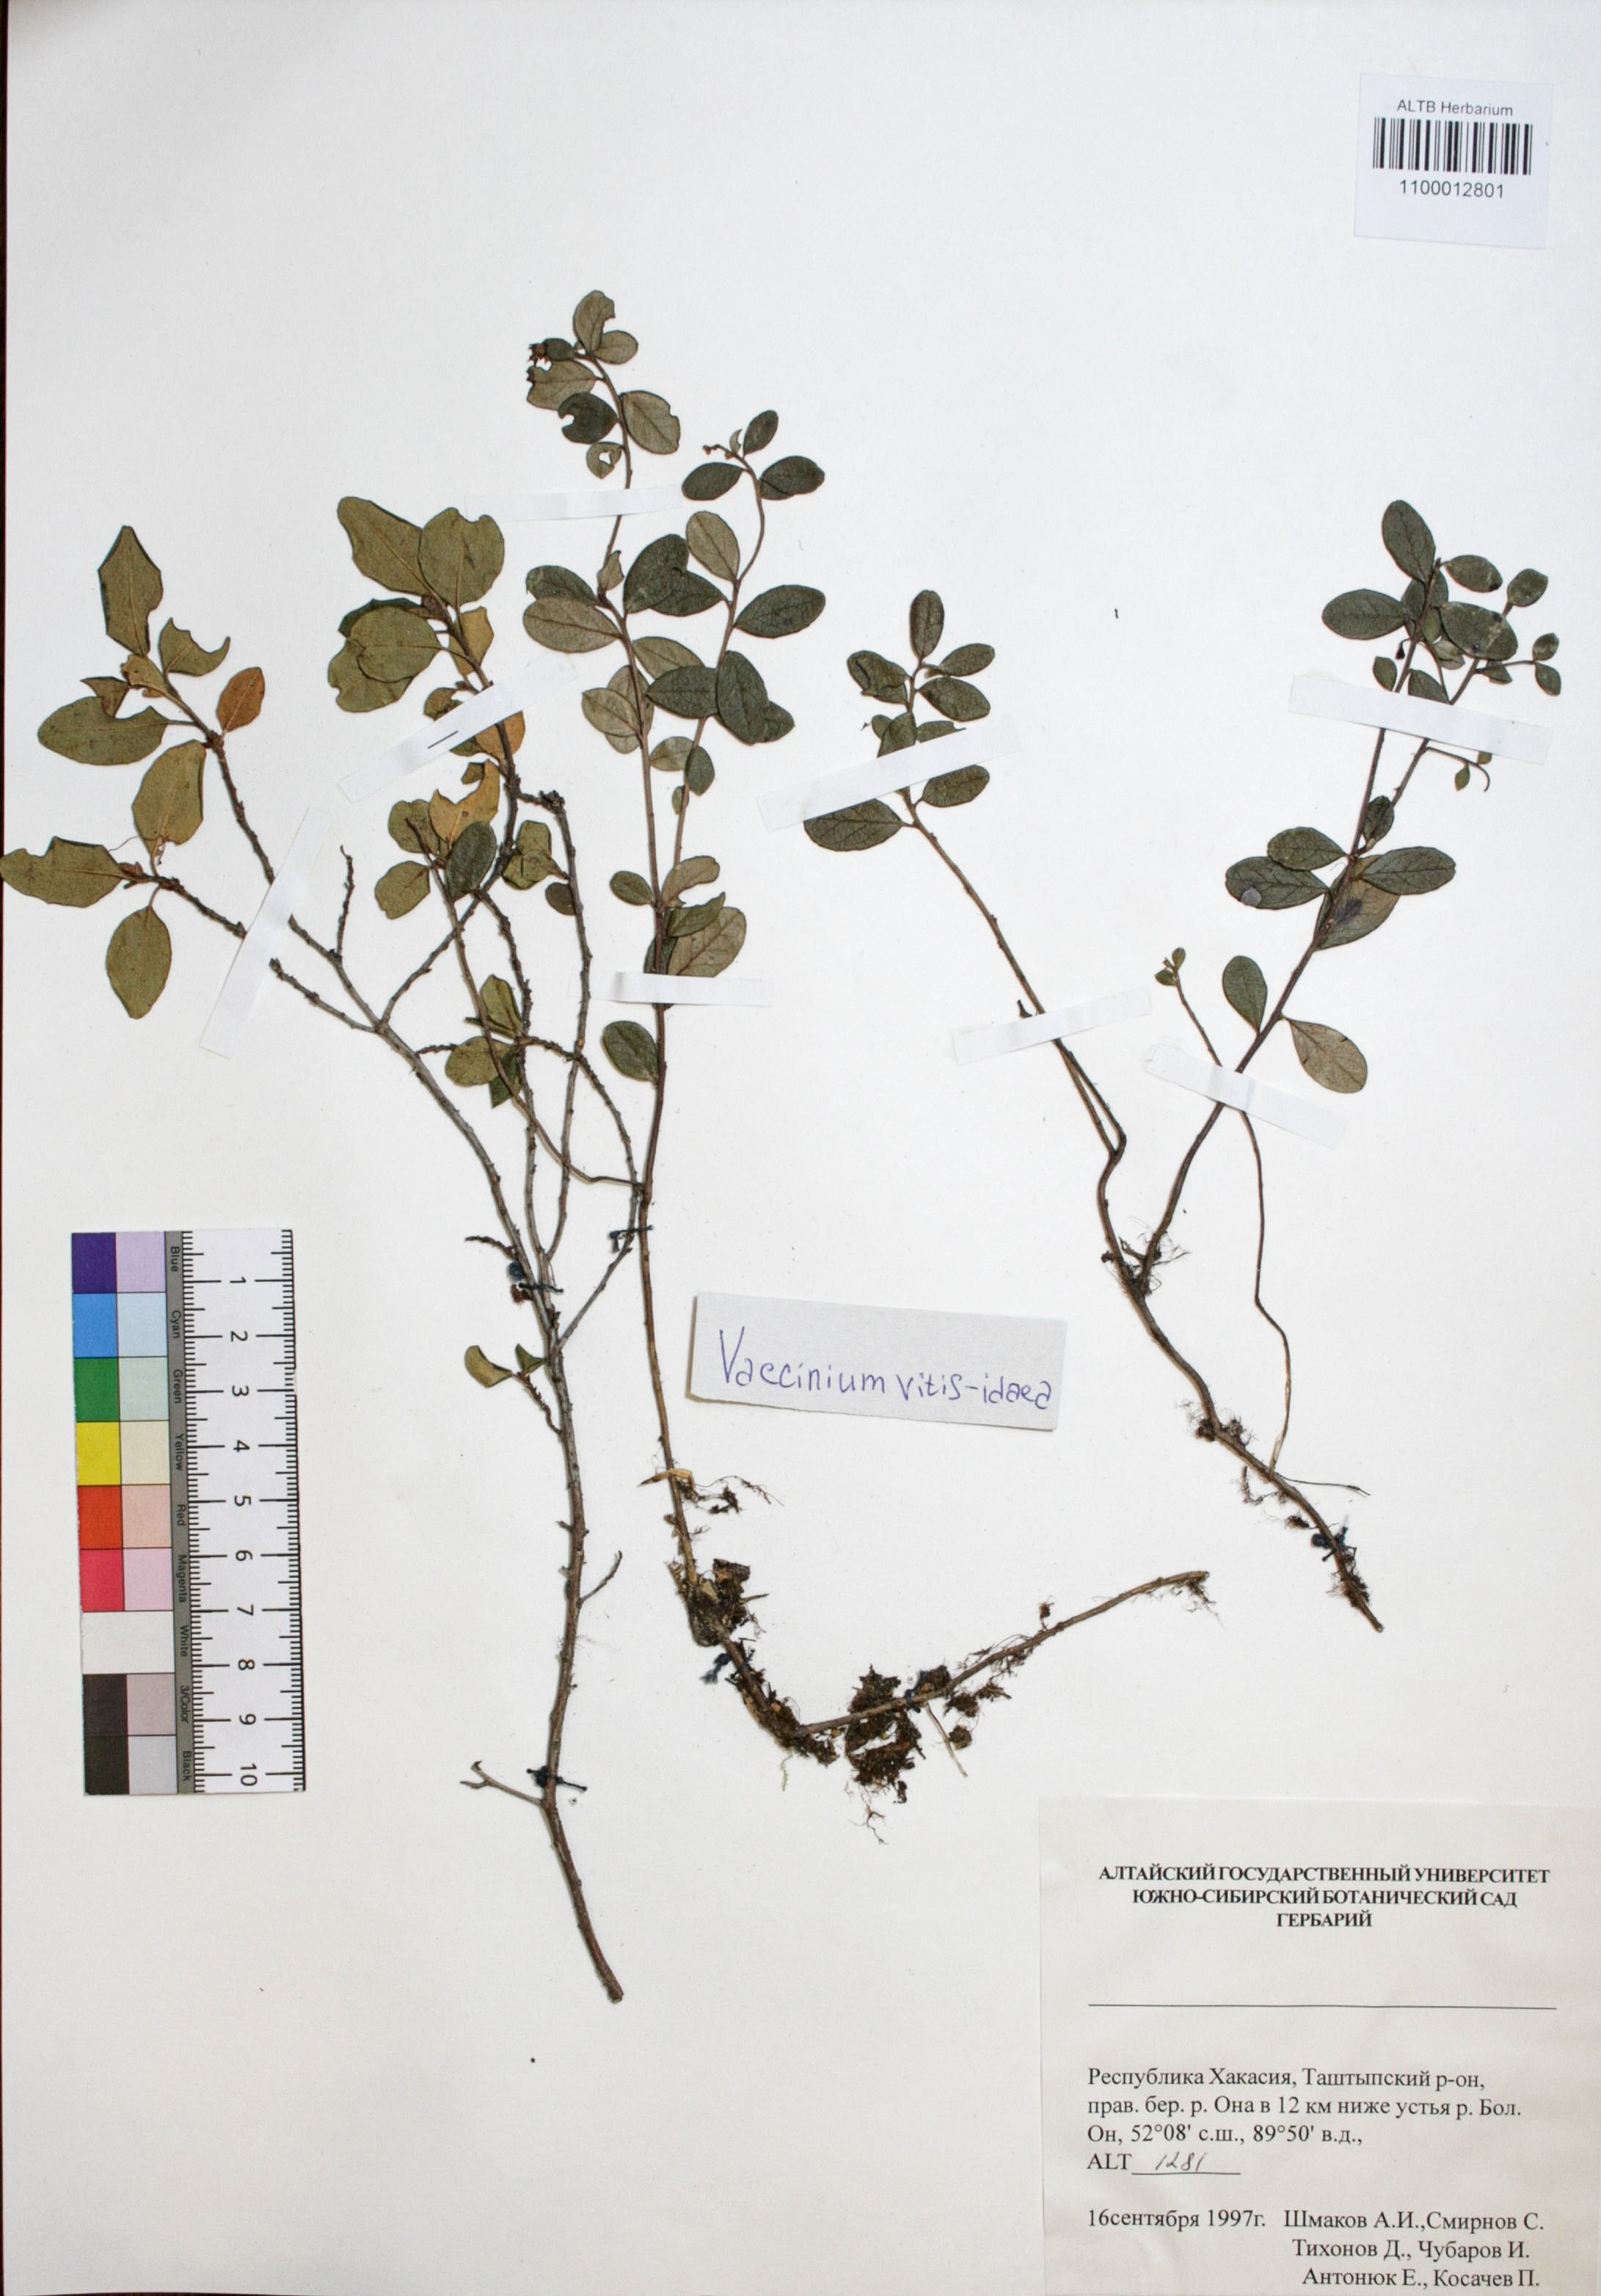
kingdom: Plantae
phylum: Tracheophyta
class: Magnoliopsida
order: Ericales
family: Ericaceae
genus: Vaccinium
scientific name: Vaccinium vitis-idaea
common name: Cowberry
